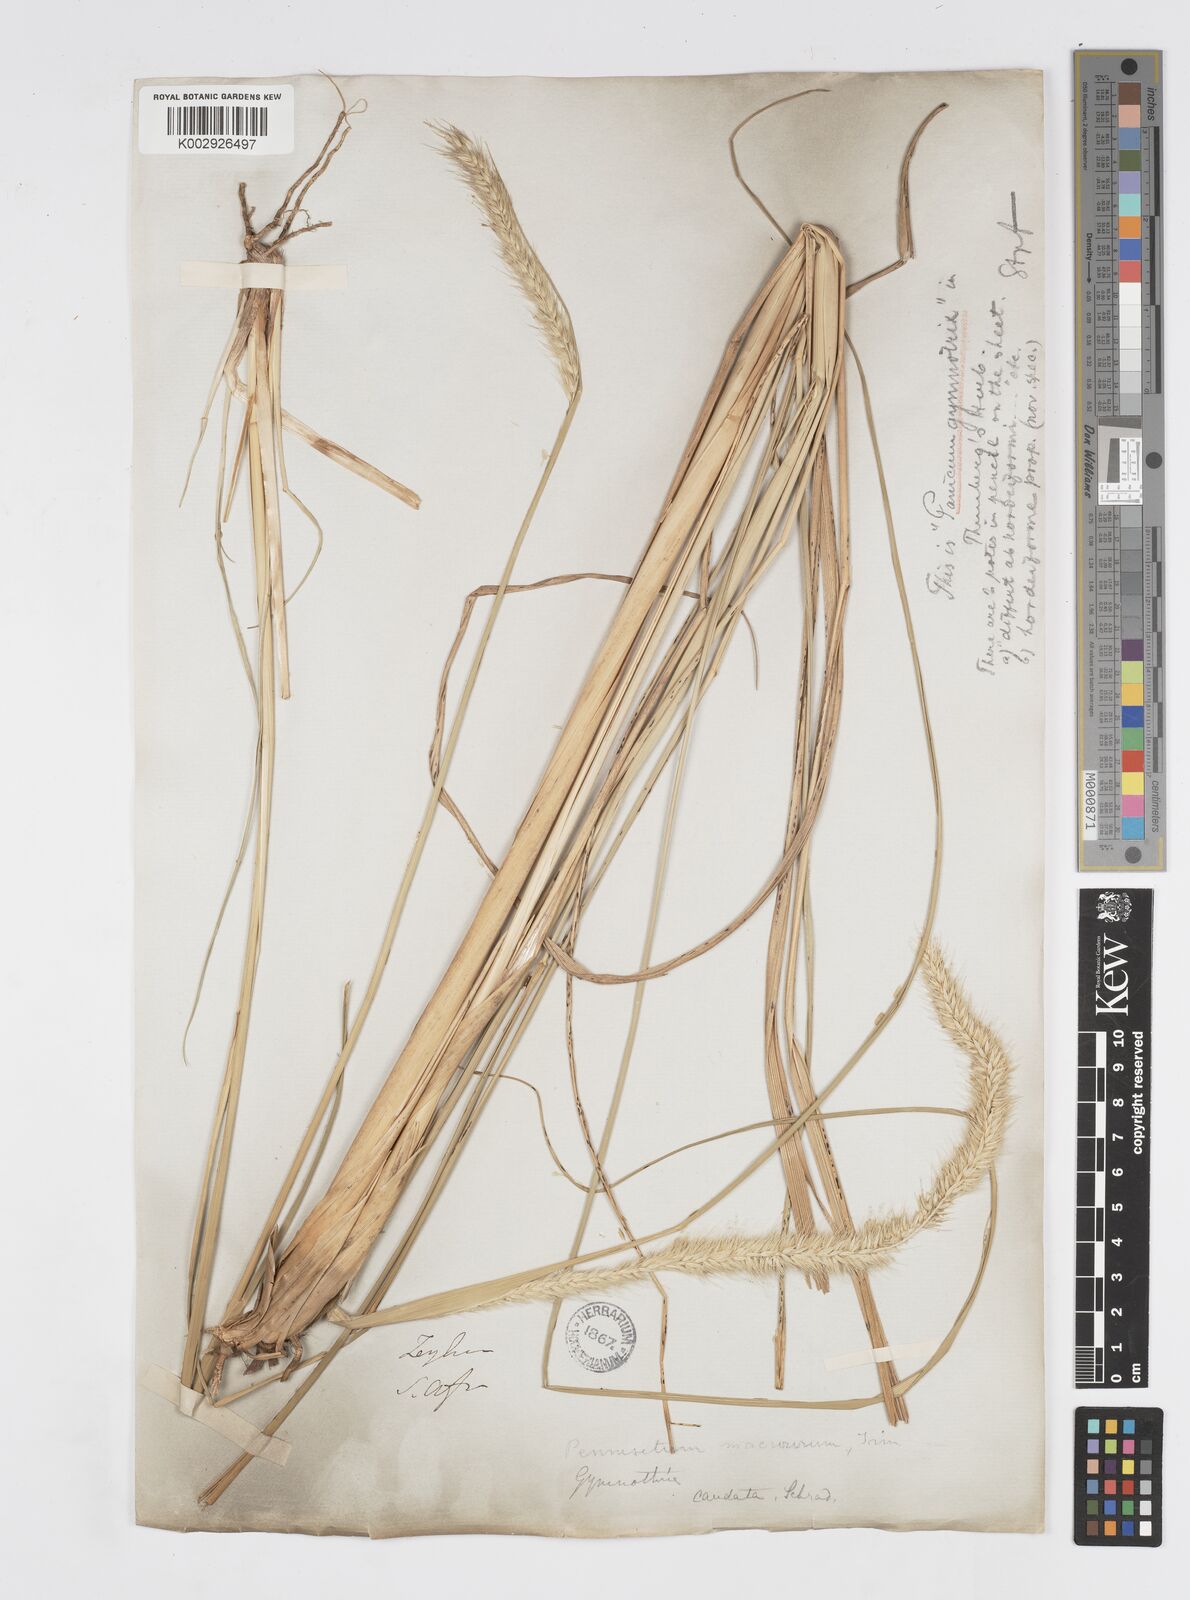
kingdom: Plantae
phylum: Tracheophyta
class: Liliopsida
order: Poales
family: Poaceae
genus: Cenchrus
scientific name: Cenchrus caudatus
